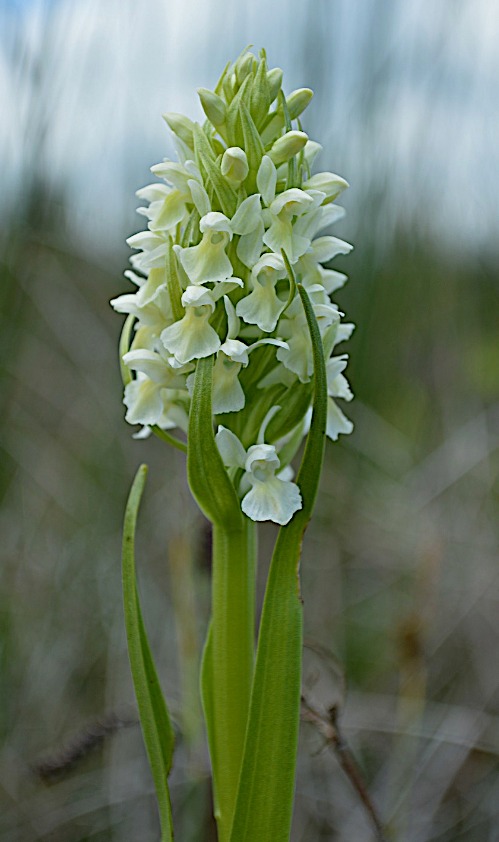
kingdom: Plantae
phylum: Tracheophyta
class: Liliopsida
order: Asparagales
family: Orchidaceae
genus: Dactylorhiza
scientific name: Dactylorhiza incarnata
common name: Hvidgul gøgeurt
